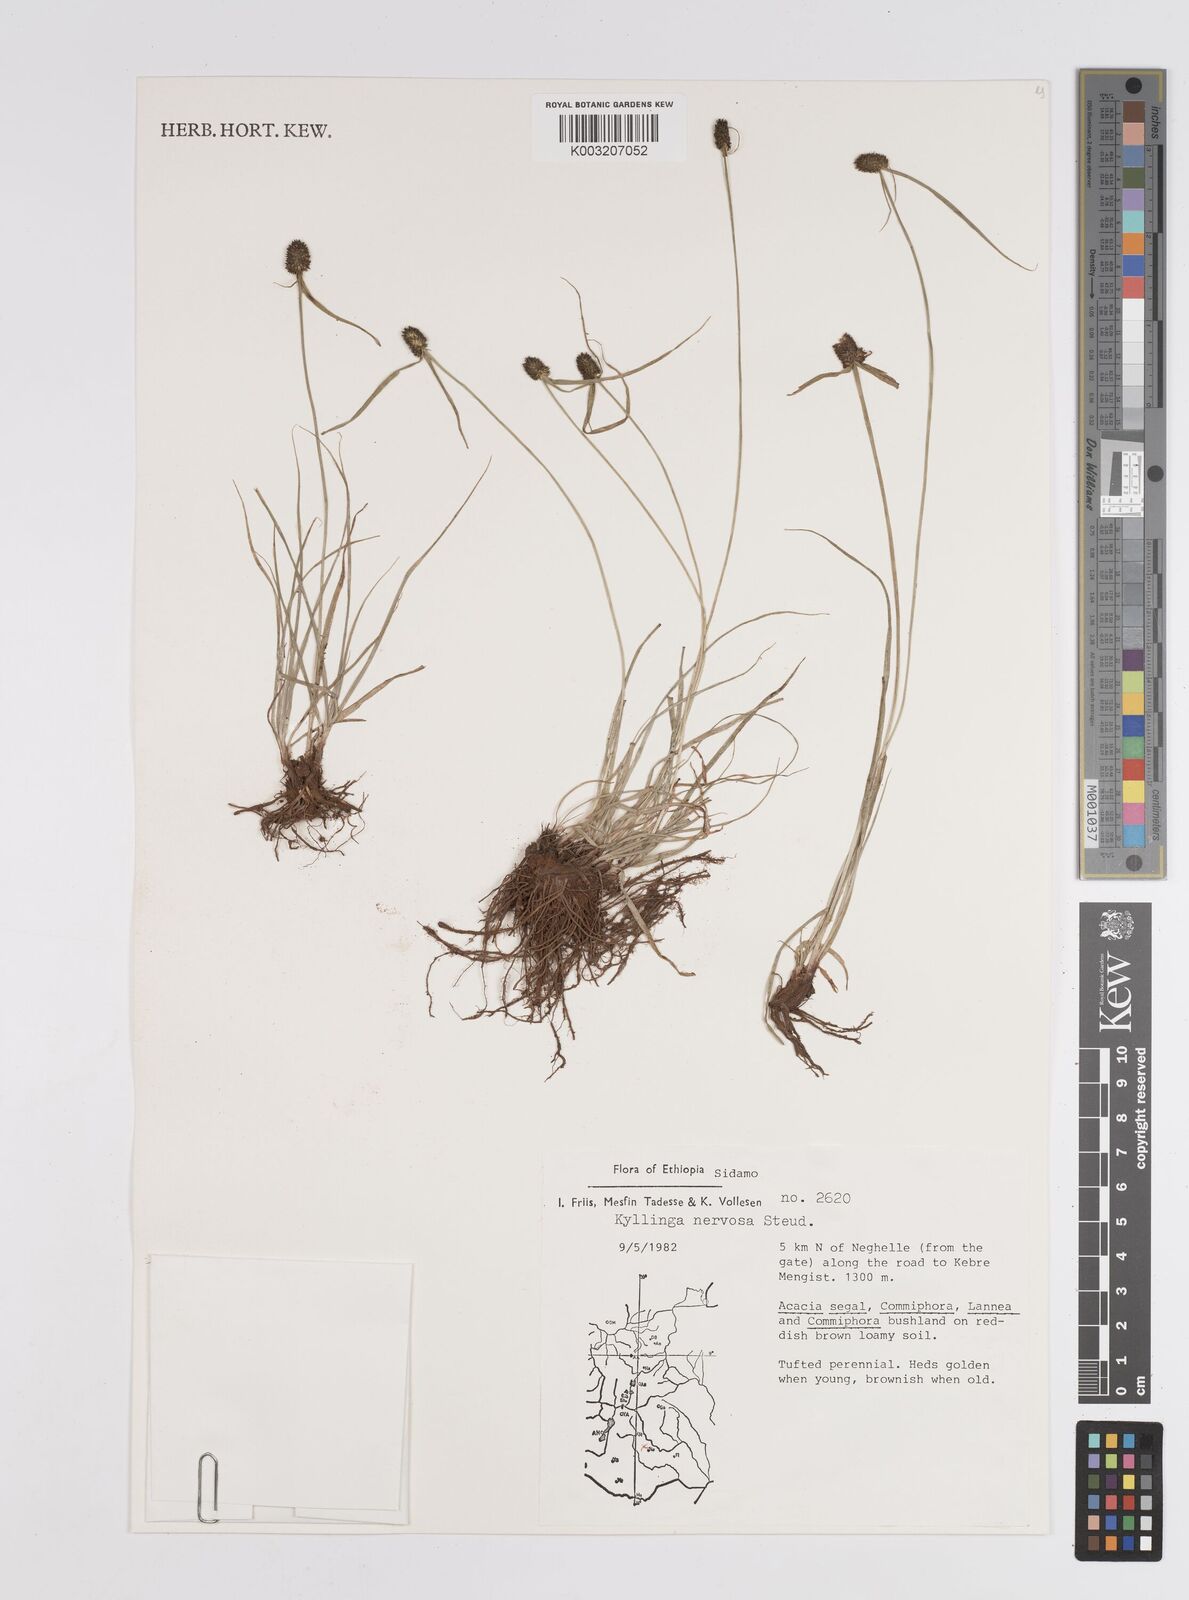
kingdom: Plantae
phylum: Tracheophyta
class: Liliopsida
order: Poales
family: Cyperaceae
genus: Cyperus
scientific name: Cyperus costatus
